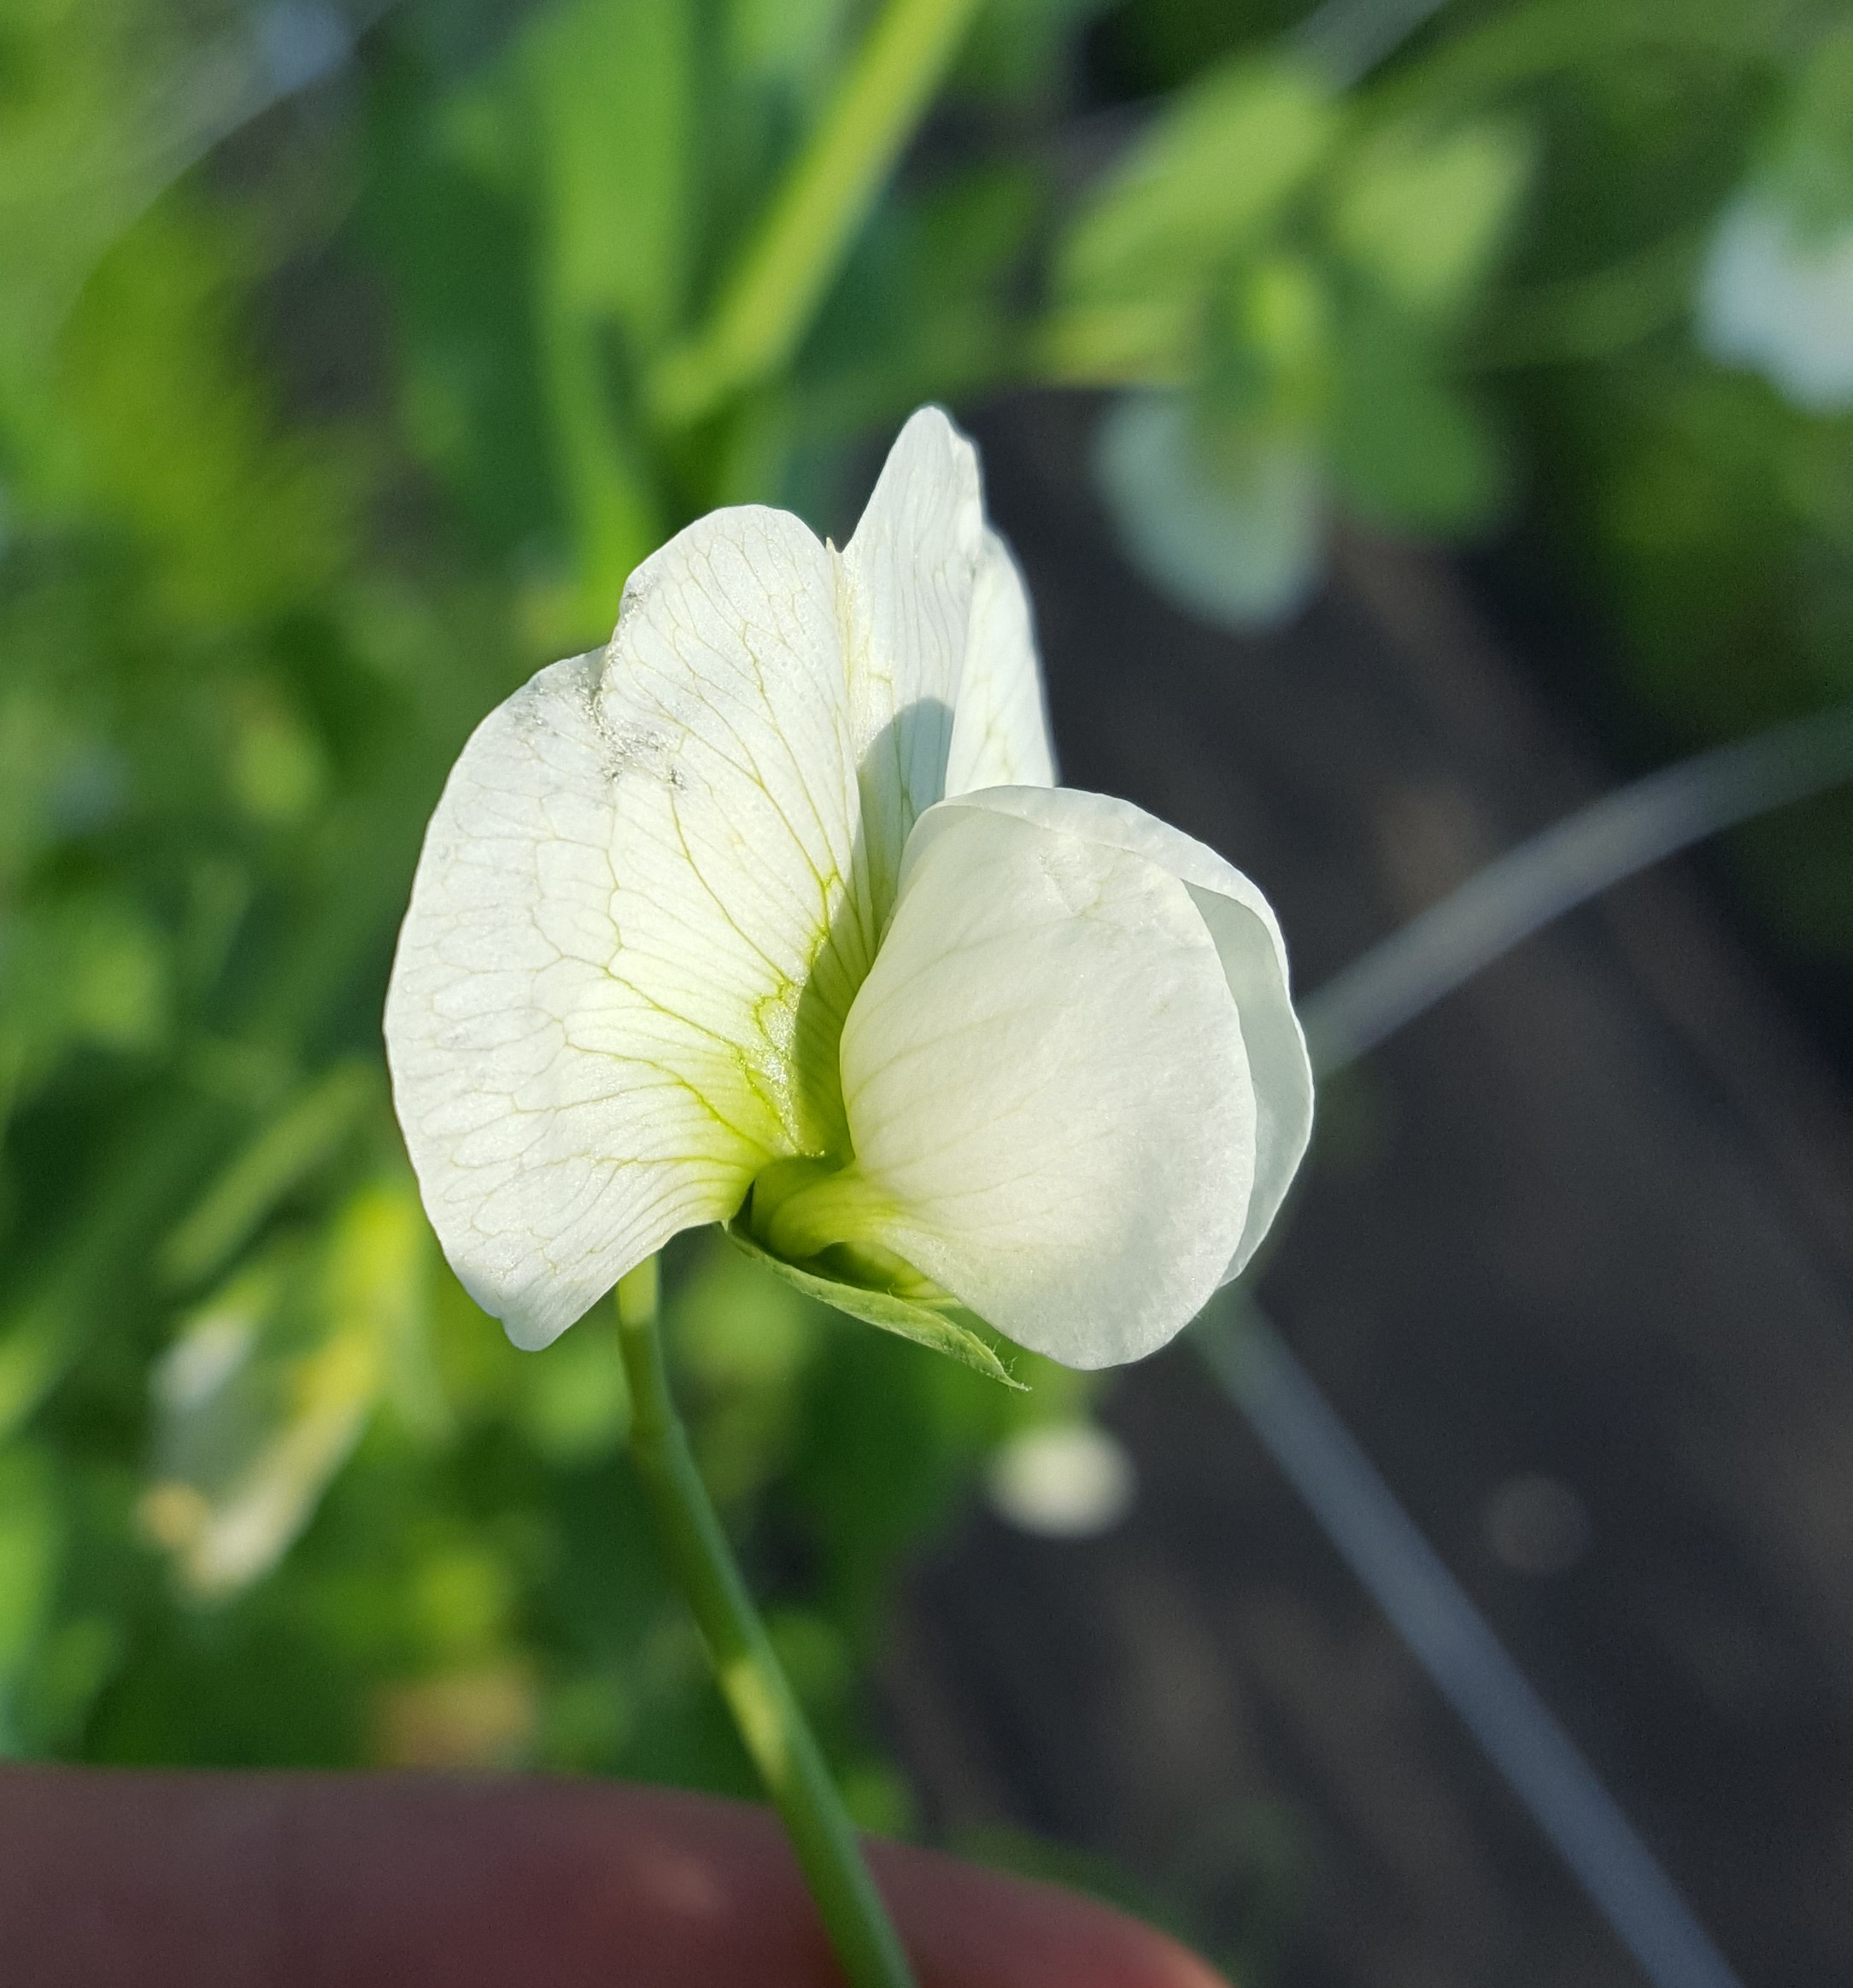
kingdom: Plantae
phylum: Tracheophyta
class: Magnoliopsida
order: Fabales
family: Fabaceae
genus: Lathyrus
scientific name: Lathyrus oleraceus
